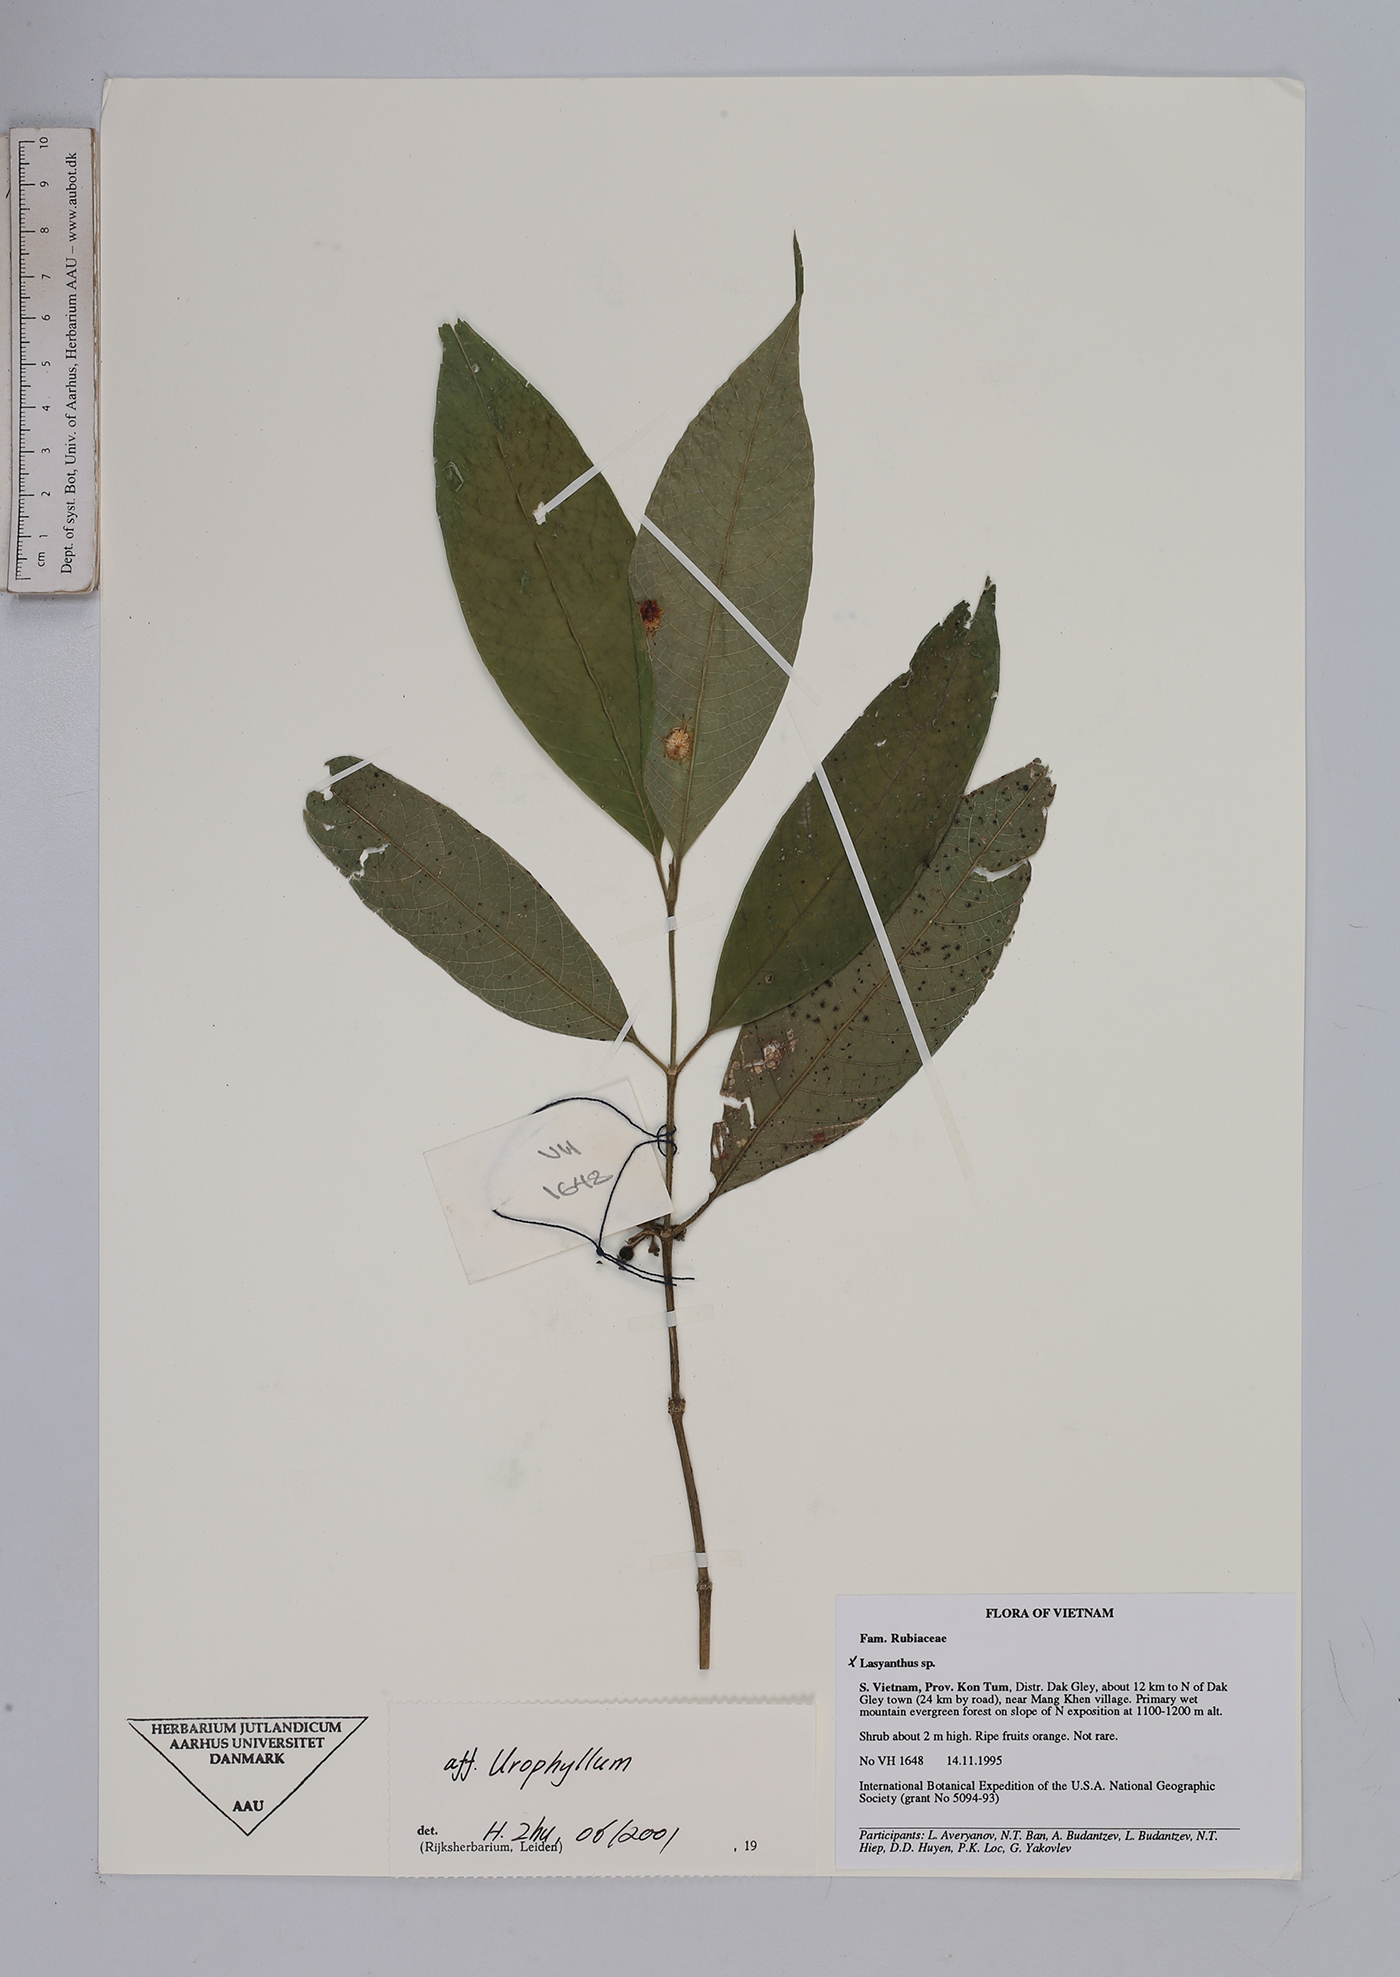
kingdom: Plantae
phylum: Tracheophyta
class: Magnoliopsida
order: Gentianales
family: Rubiaceae
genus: Urophyllum
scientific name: Urophyllum
